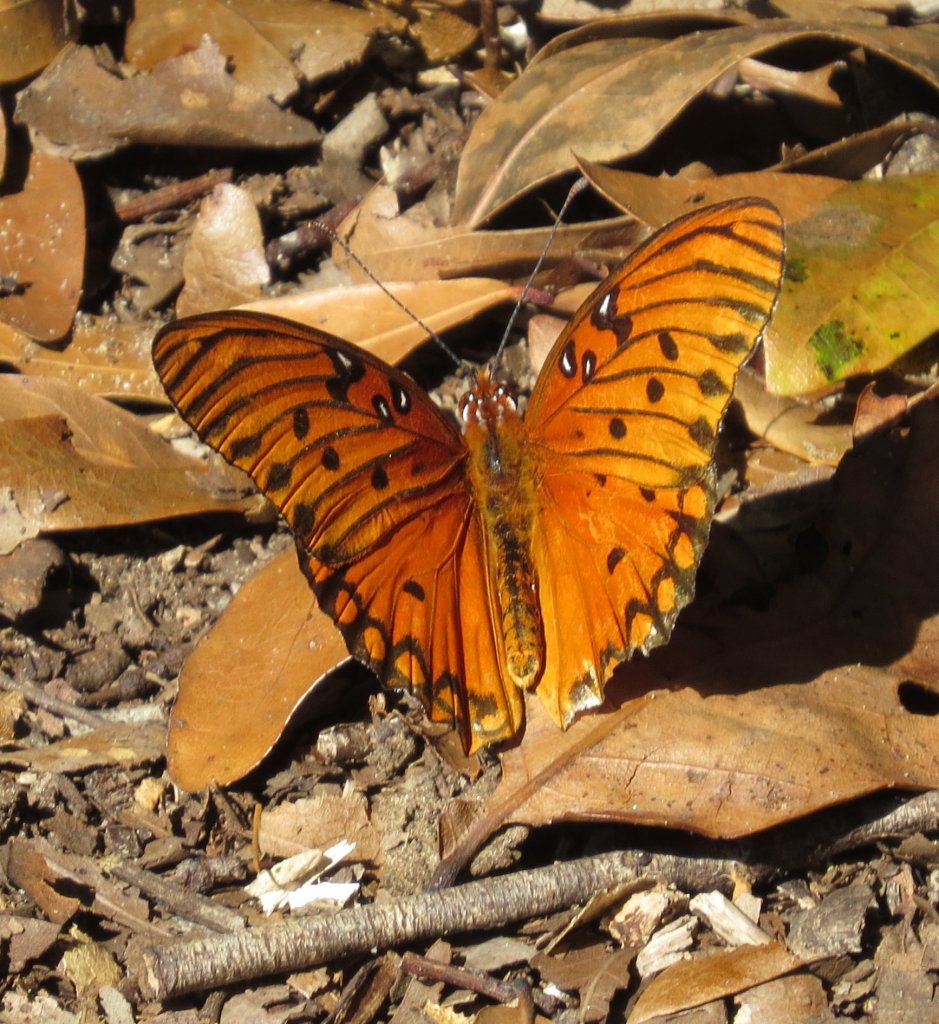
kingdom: Animalia
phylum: Arthropoda
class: Insecta
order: Lepidoptera
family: Nymphalidae
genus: Dione
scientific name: Dione vanillae
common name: Gulf Fritillary
